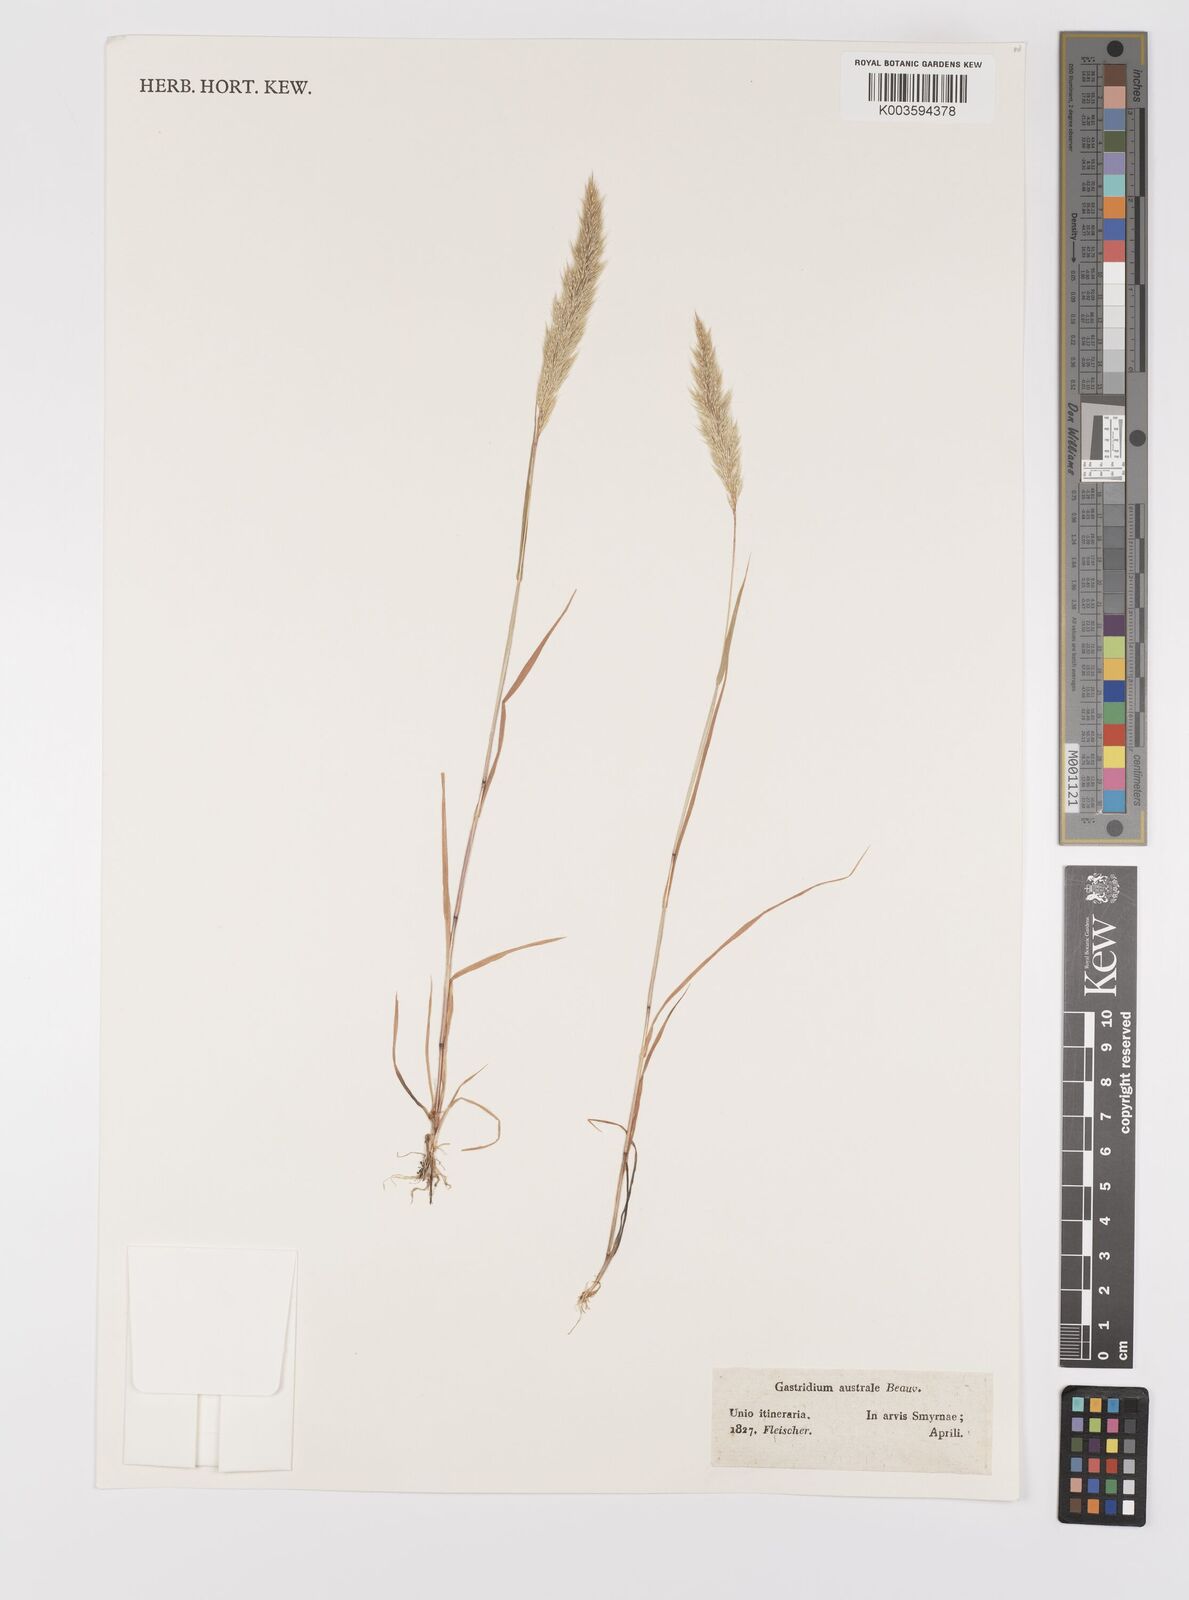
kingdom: Plantae
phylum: Tracheophyta
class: Liliopsida
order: Poales
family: Poaceae
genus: Gastridium
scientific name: Gastridium phleoides
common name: Nit grass
